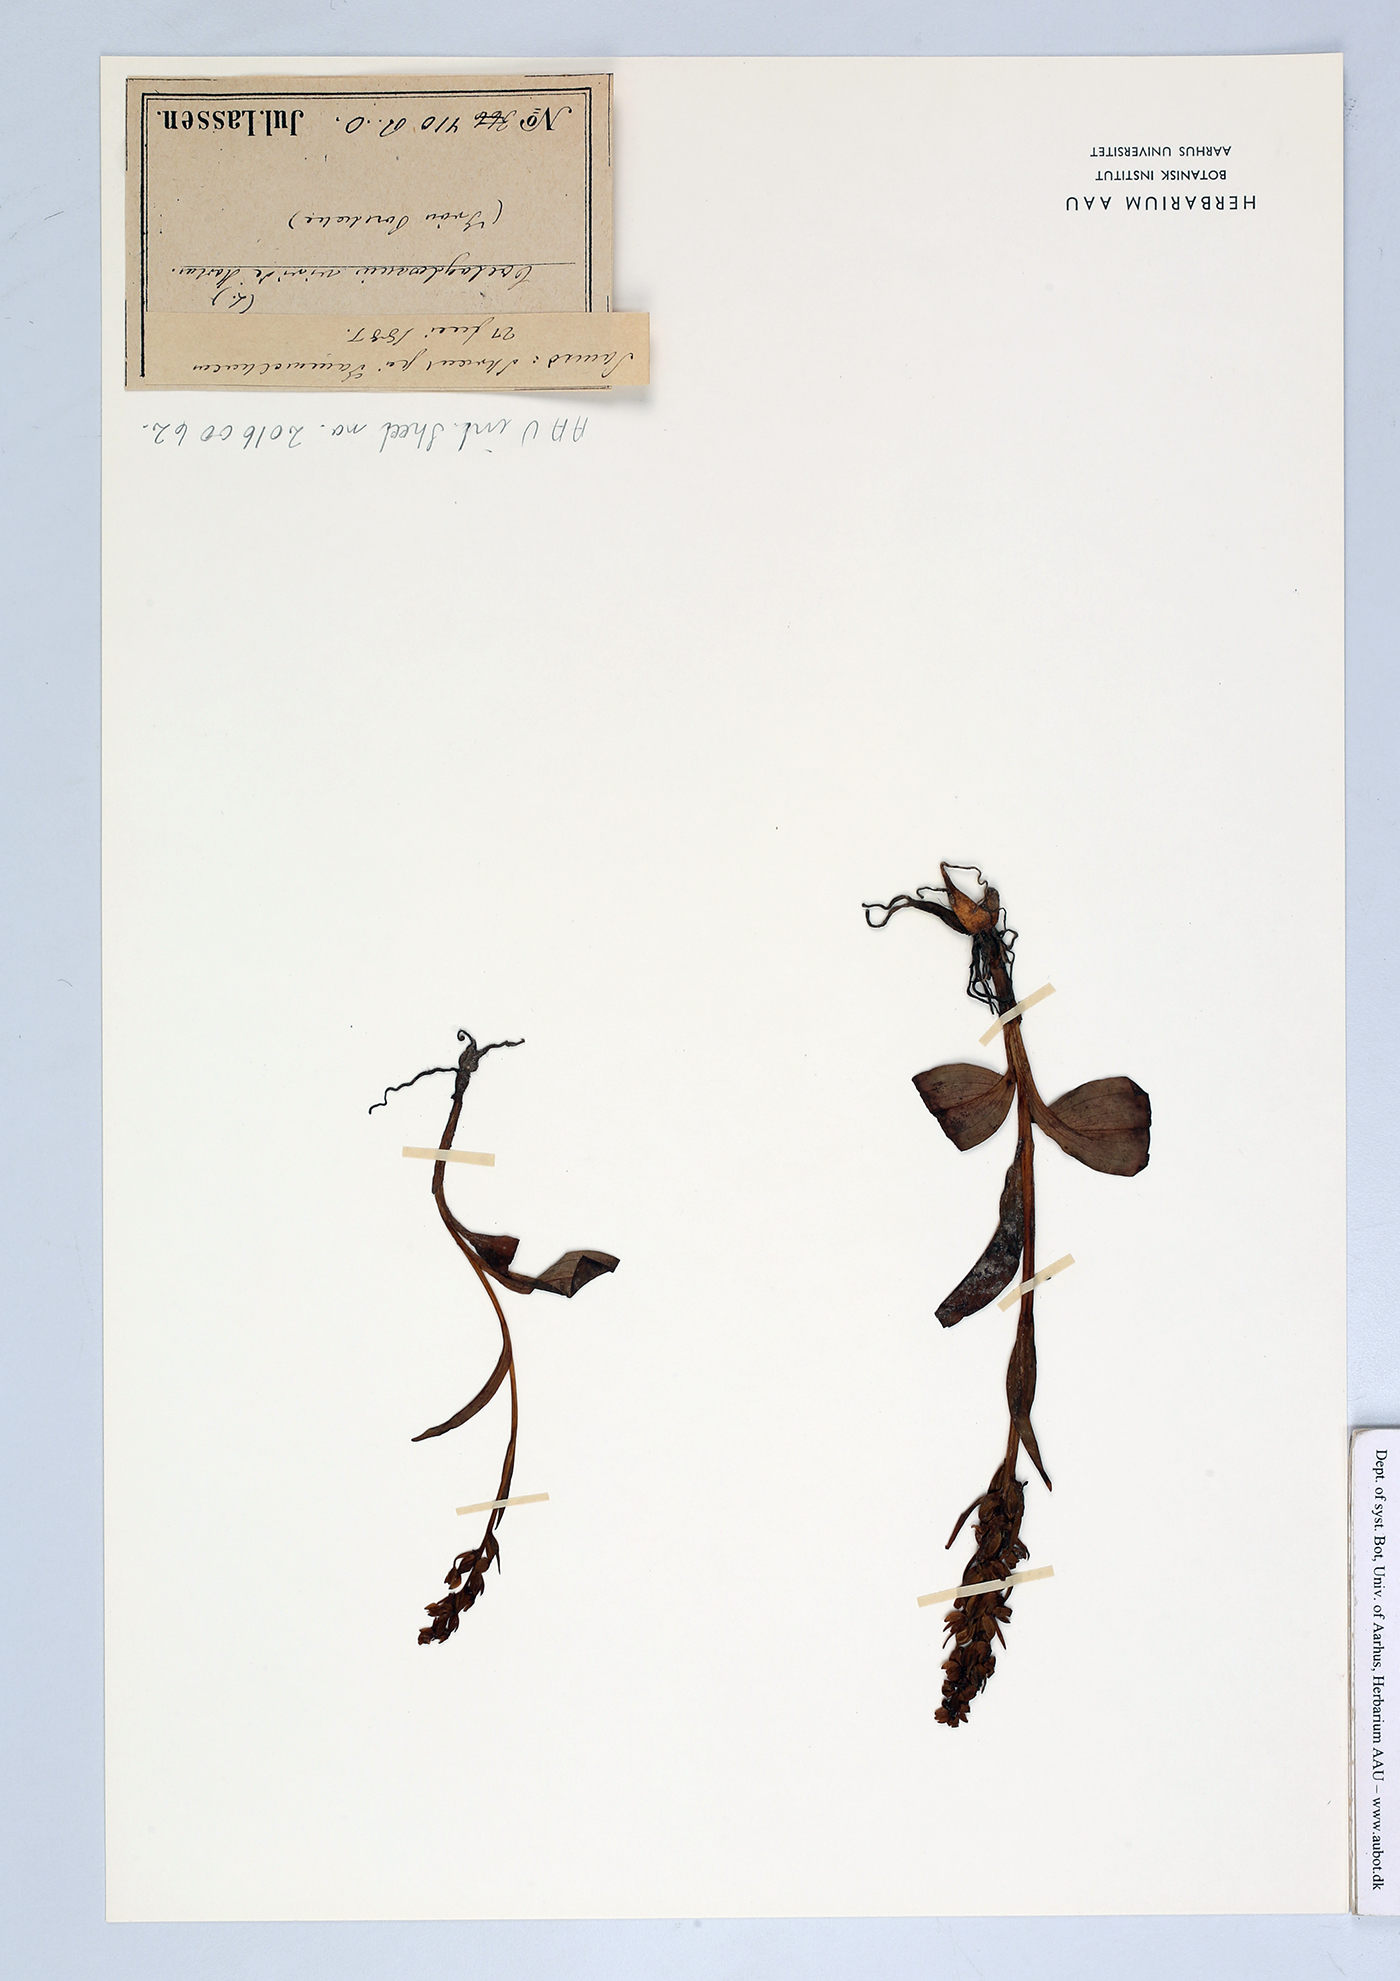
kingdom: Plantae
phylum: Tracheophyta
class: Liliopsida
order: Asparagales
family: Orchidaceae
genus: Dactylorhiza
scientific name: Dactylorhiza viridis
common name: Longbract frog orchid
